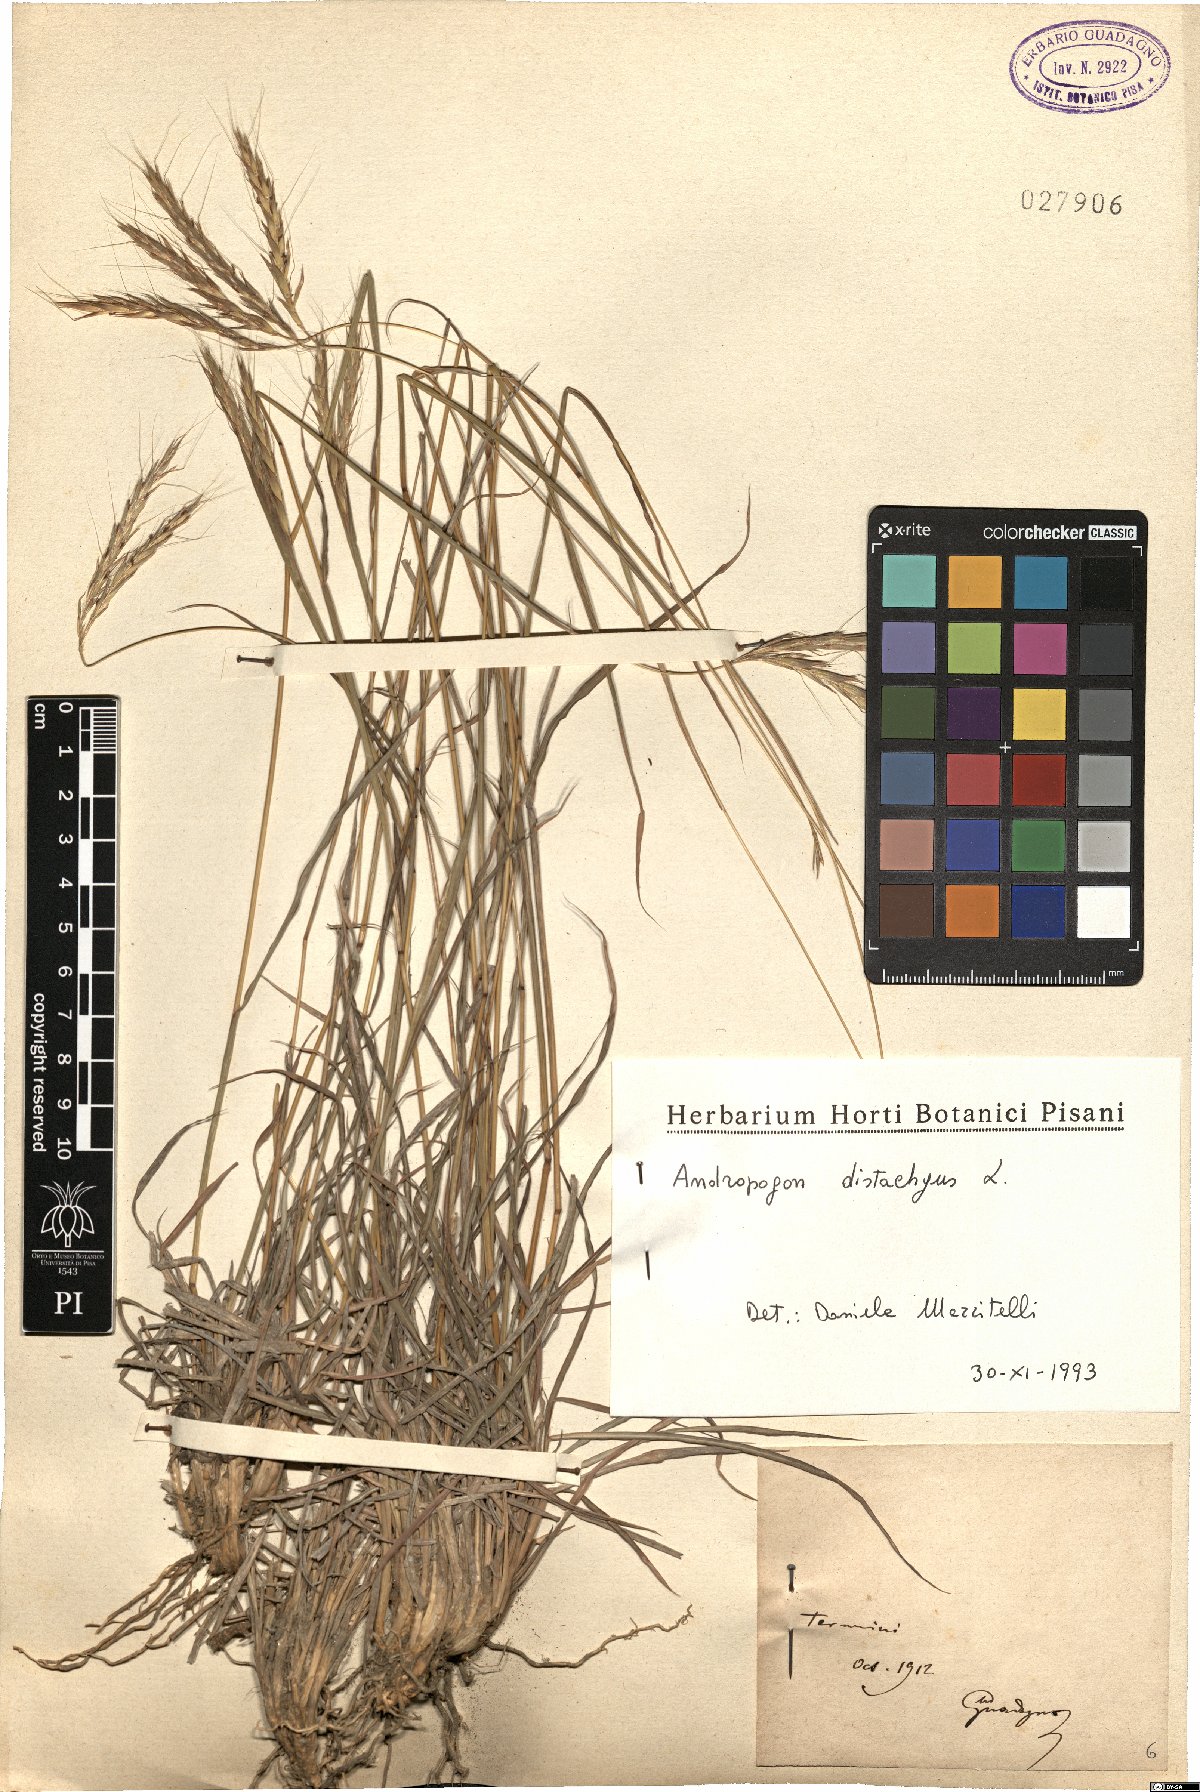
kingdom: Plantae
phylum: Tracheophyta
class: Liliopsida
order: Poales
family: Poaceae
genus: Andropogon
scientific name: Andropogon distachyos
